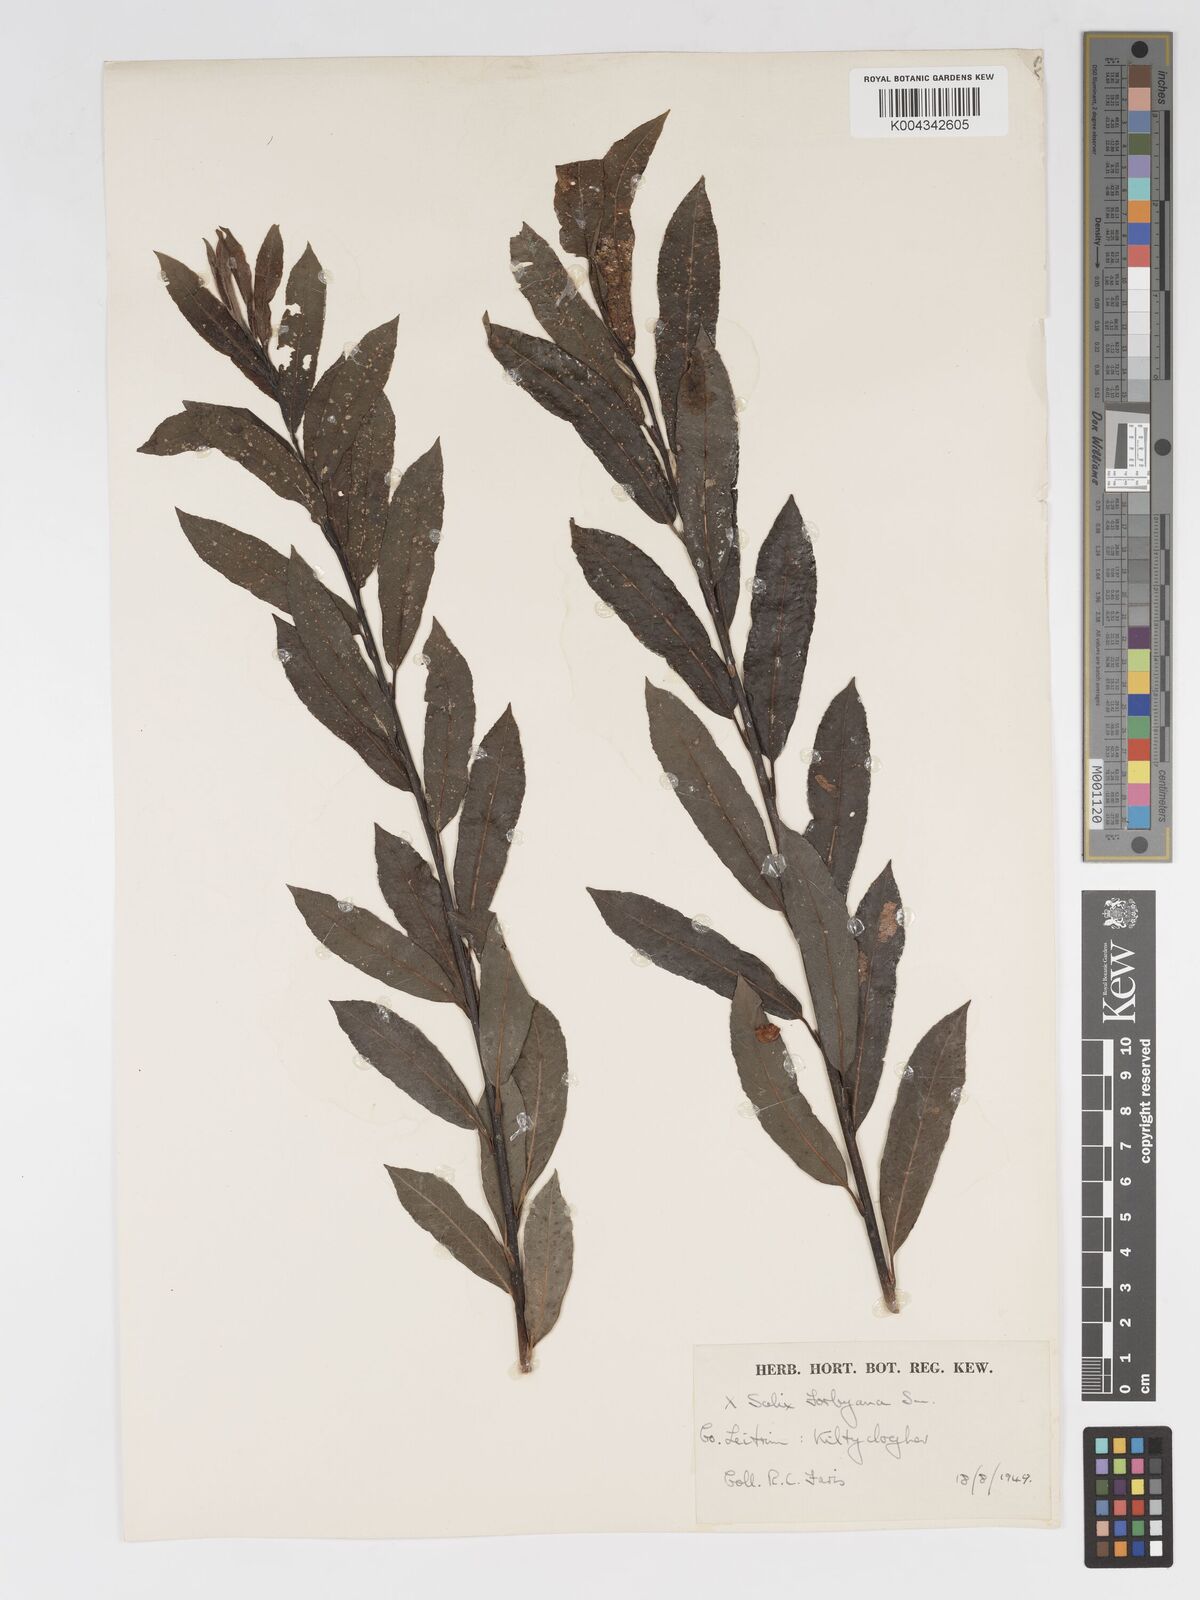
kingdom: Plantae
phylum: Tracheophyta
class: Magnoliopsida
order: Malpighiales
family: Salicaceae
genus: Salix
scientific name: Salix cinerea
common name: Common sallow
